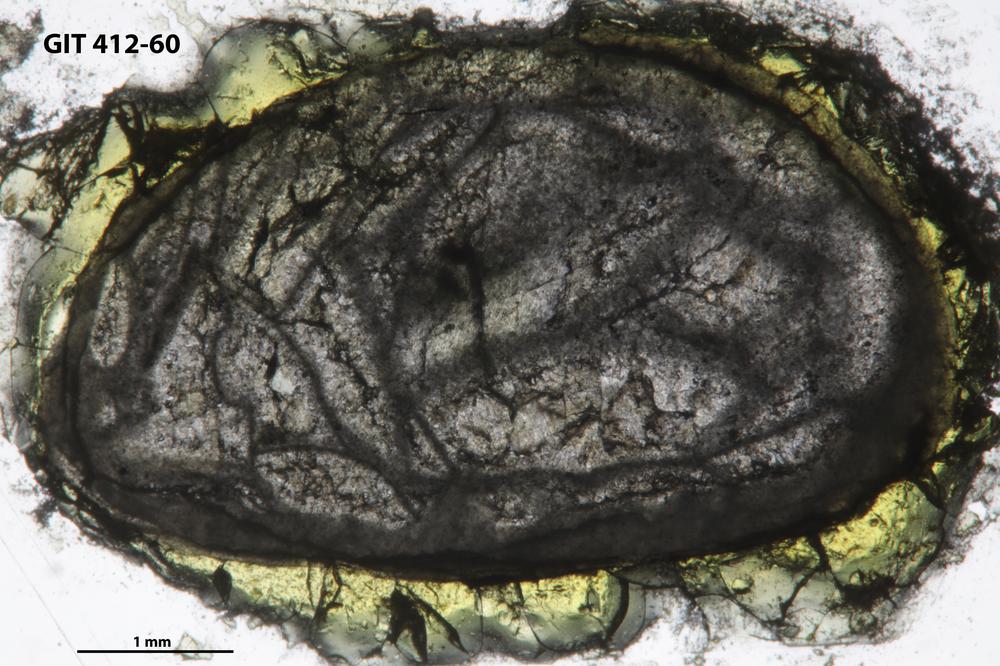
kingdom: Animalia
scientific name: Animalia
